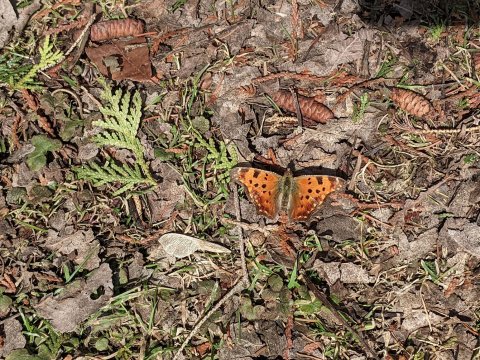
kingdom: Animalia
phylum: Arthropoda
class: Insecta
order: Lepidoptera
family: Nymphalidae
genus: Polygonia
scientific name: Polygonia comma
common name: Eastern Comma
